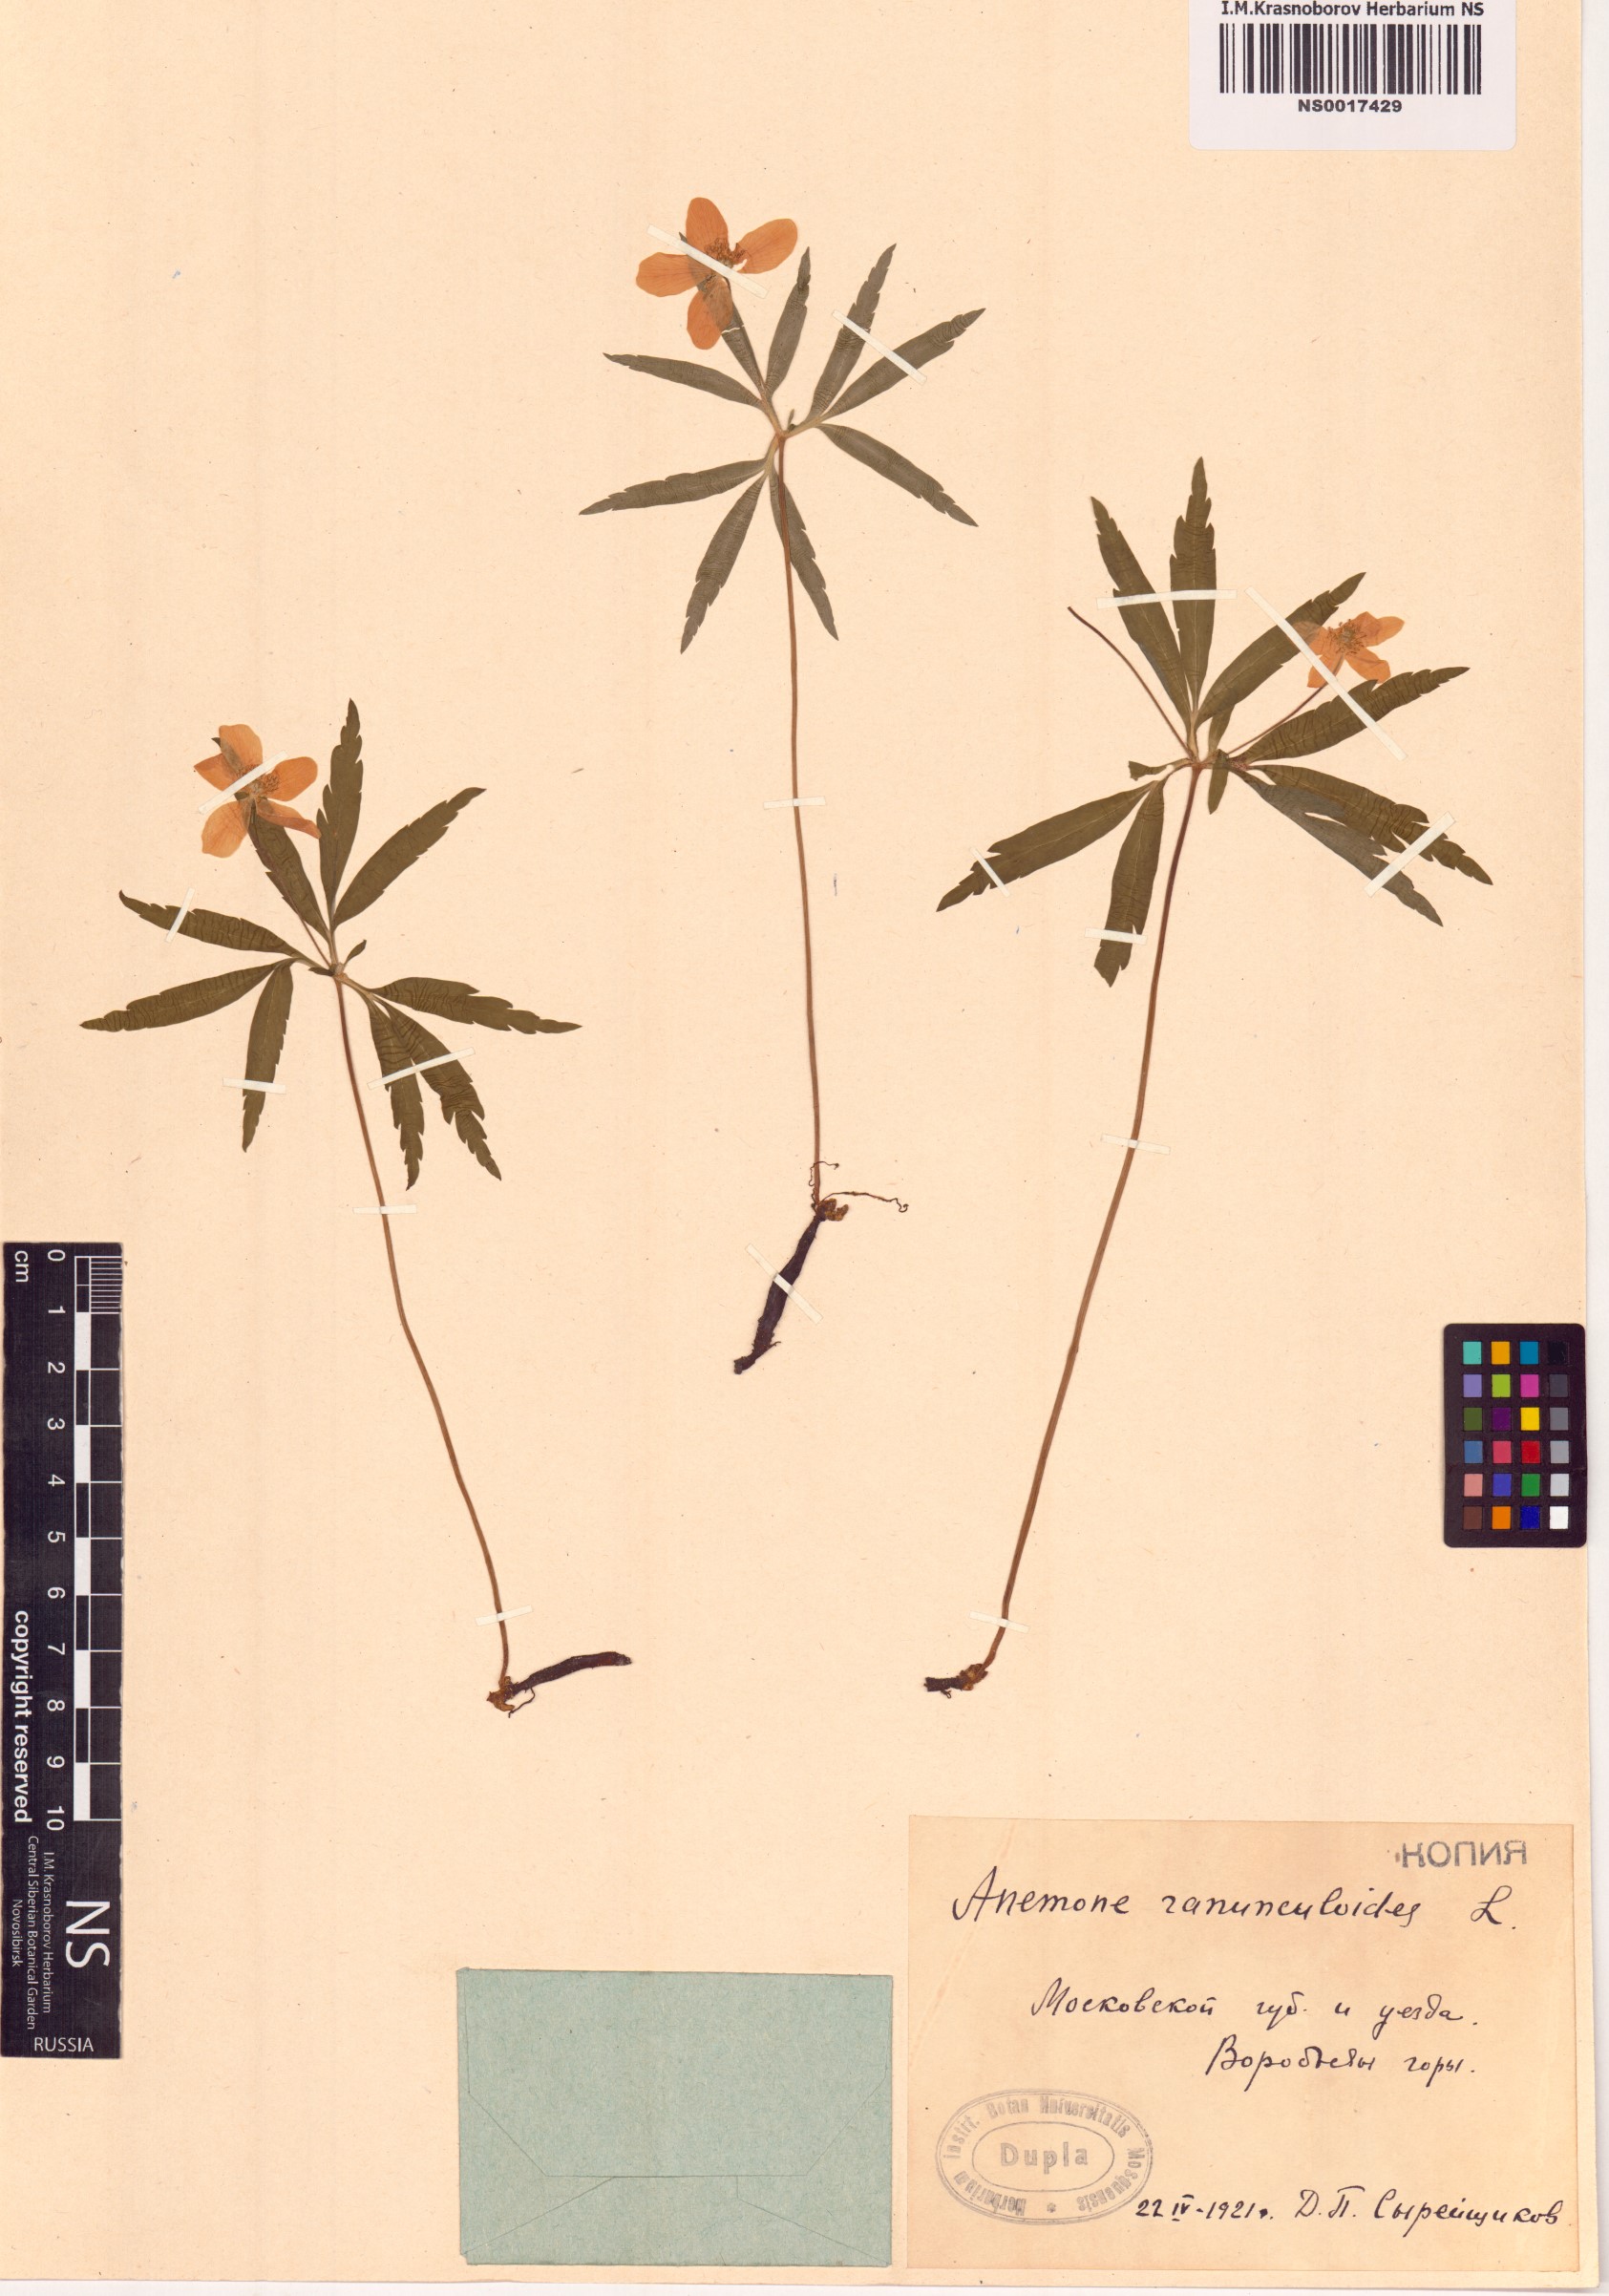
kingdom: Plantae
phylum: Tracheophyta
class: Magnoliopsida
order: Ranunculales
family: Ranunculaceae
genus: Anemone
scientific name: Anemone ranunculoides
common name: Yellow anemone
